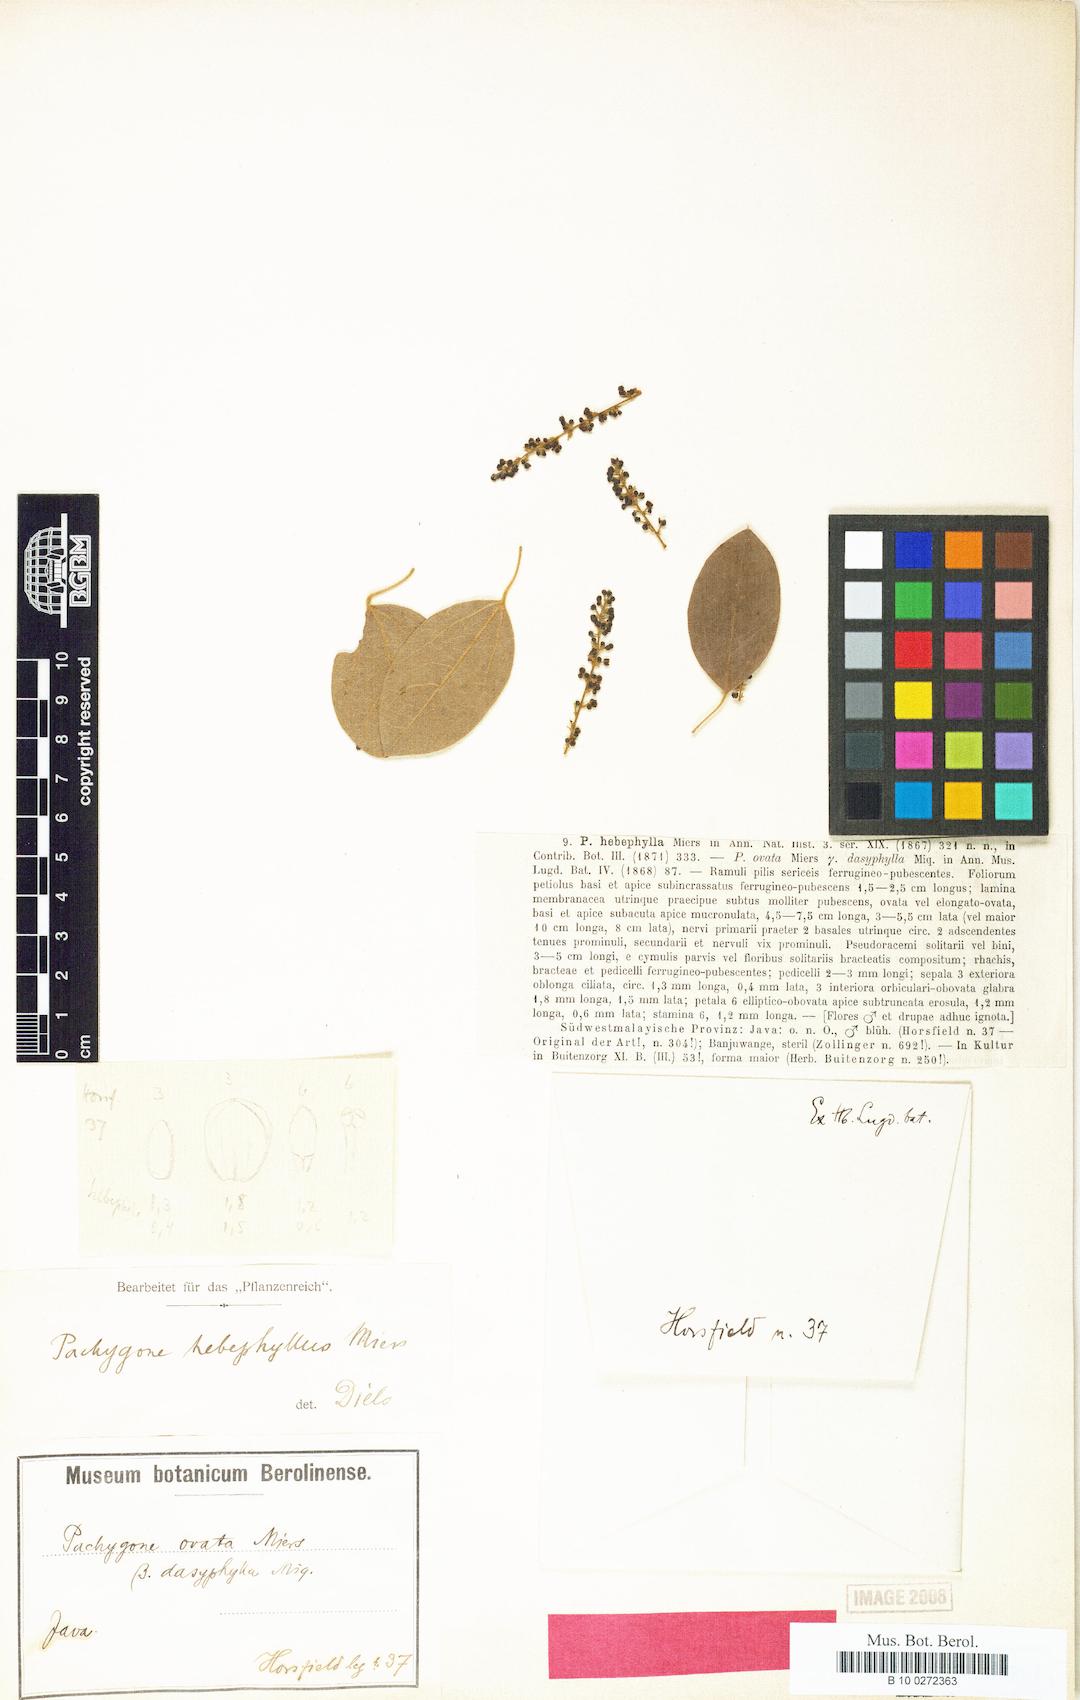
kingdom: Plantae
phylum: Tracheophyta
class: Magnoliopsida
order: Ranunculales
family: Menispermaceae
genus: Pachygone
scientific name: Pachygone ovata
